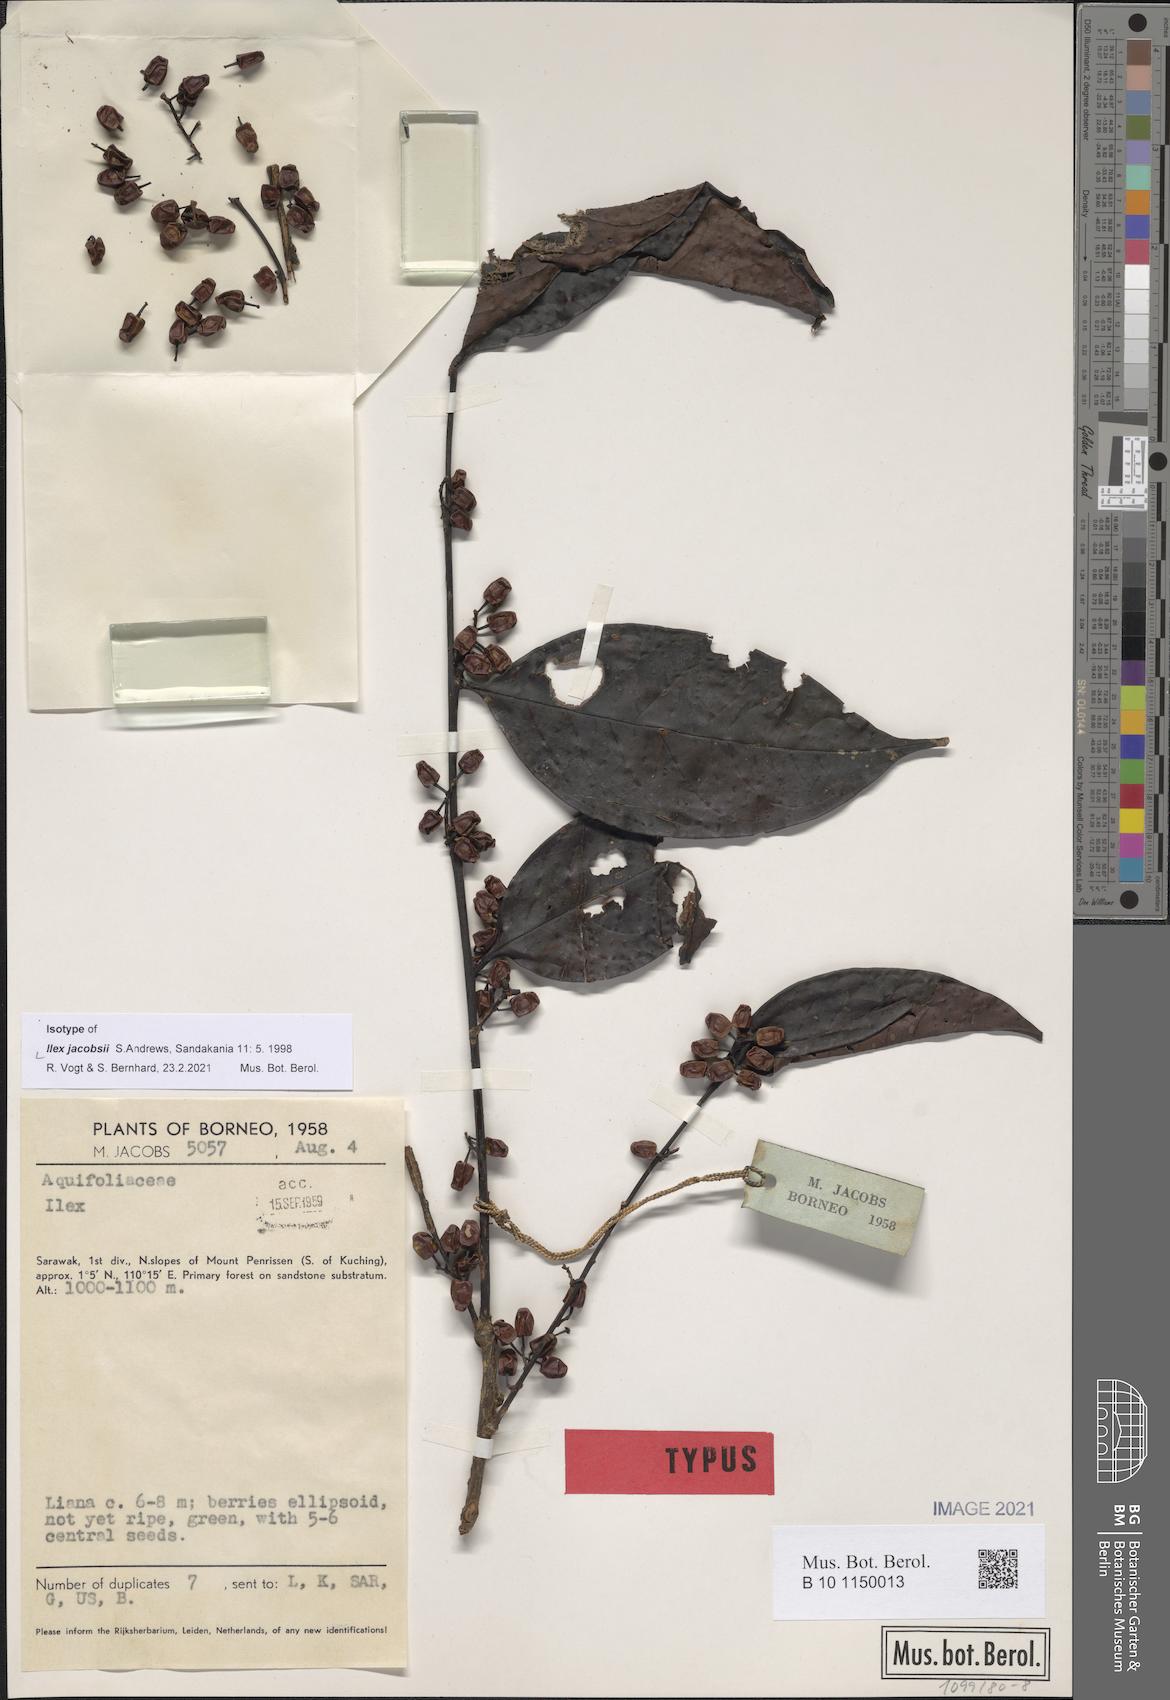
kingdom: Plantae
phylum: Tracheophyta
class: Magnoliopsida
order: Aquifoliales
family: Aquifoliaceae
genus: Ilex
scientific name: Ilex jacobsii
